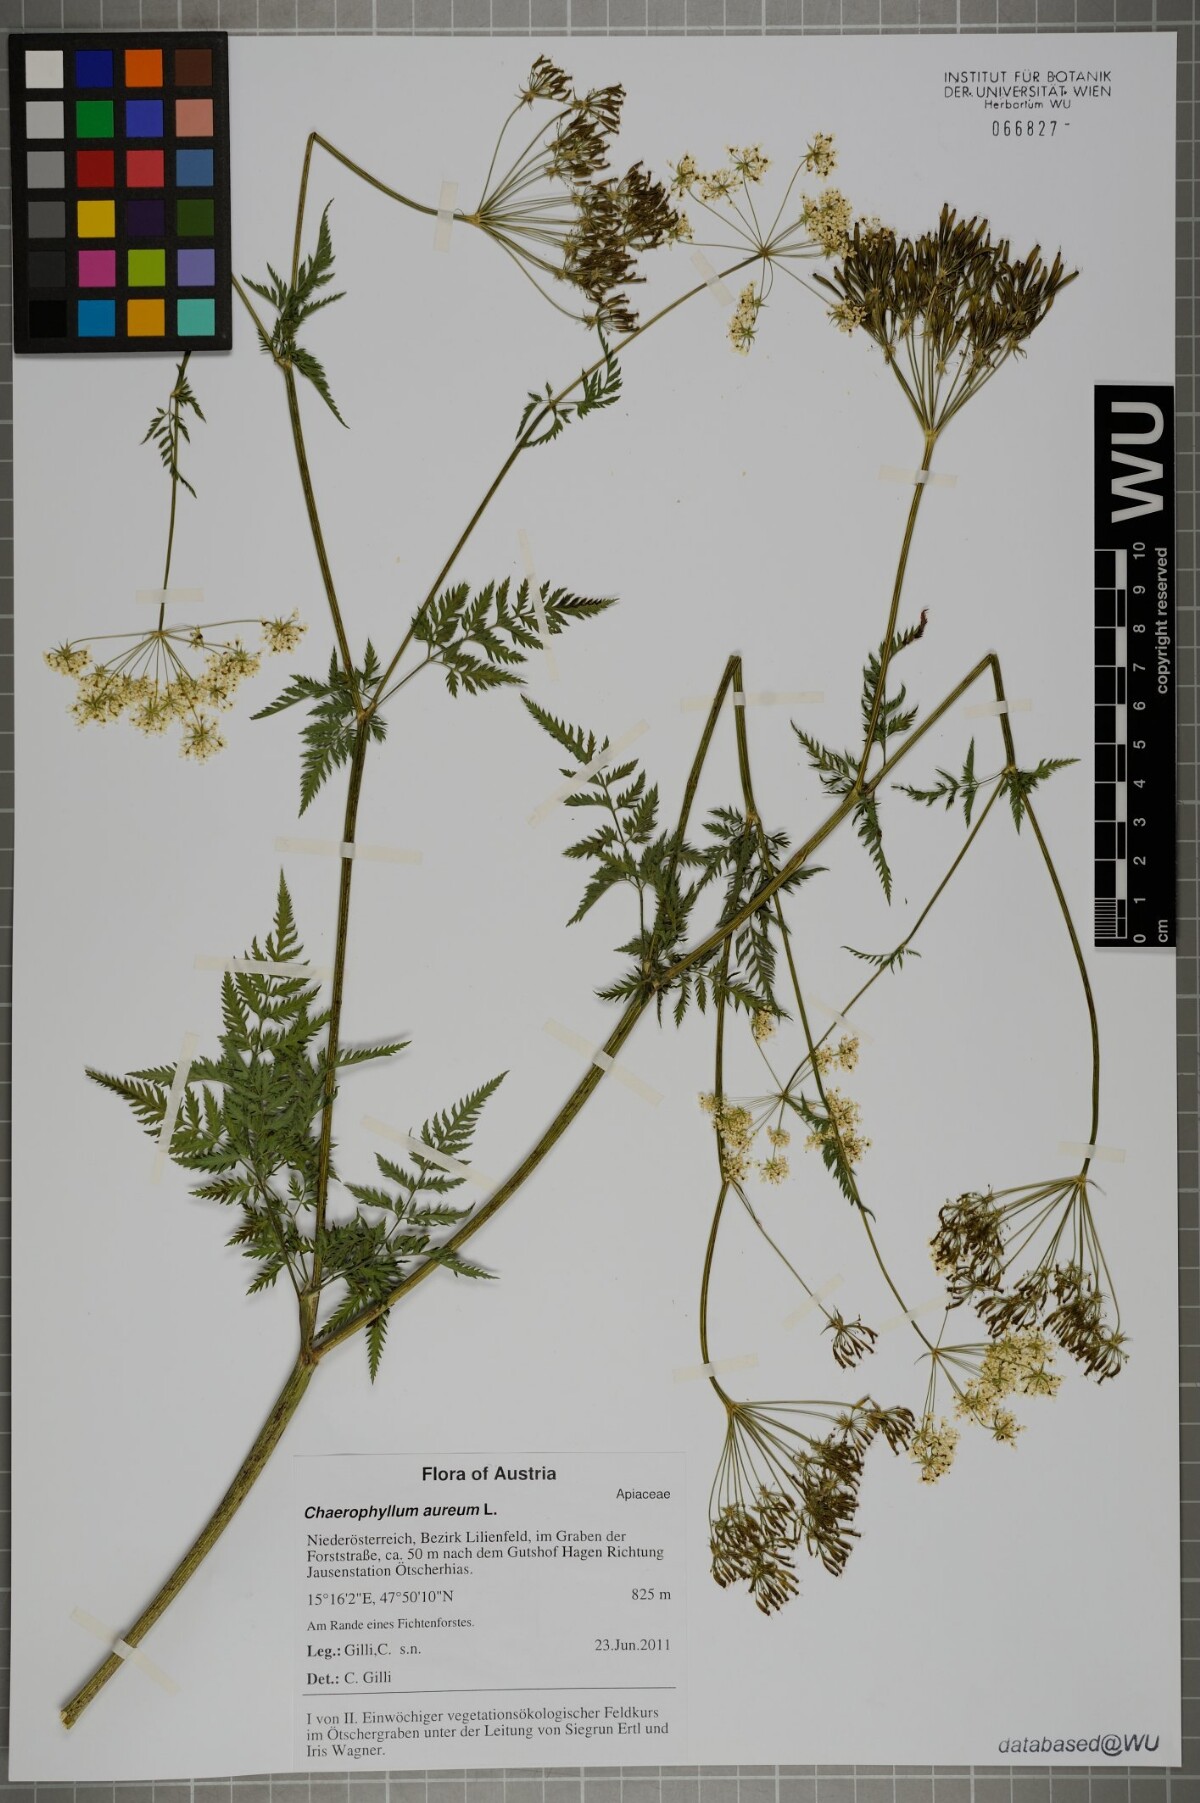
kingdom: Plantae
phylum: Tracheophyta
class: Magnoliopsida
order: Apiales
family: Apiaceae
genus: Chaerophyllum
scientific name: Chaerophyllum aureum
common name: Golden chervil
